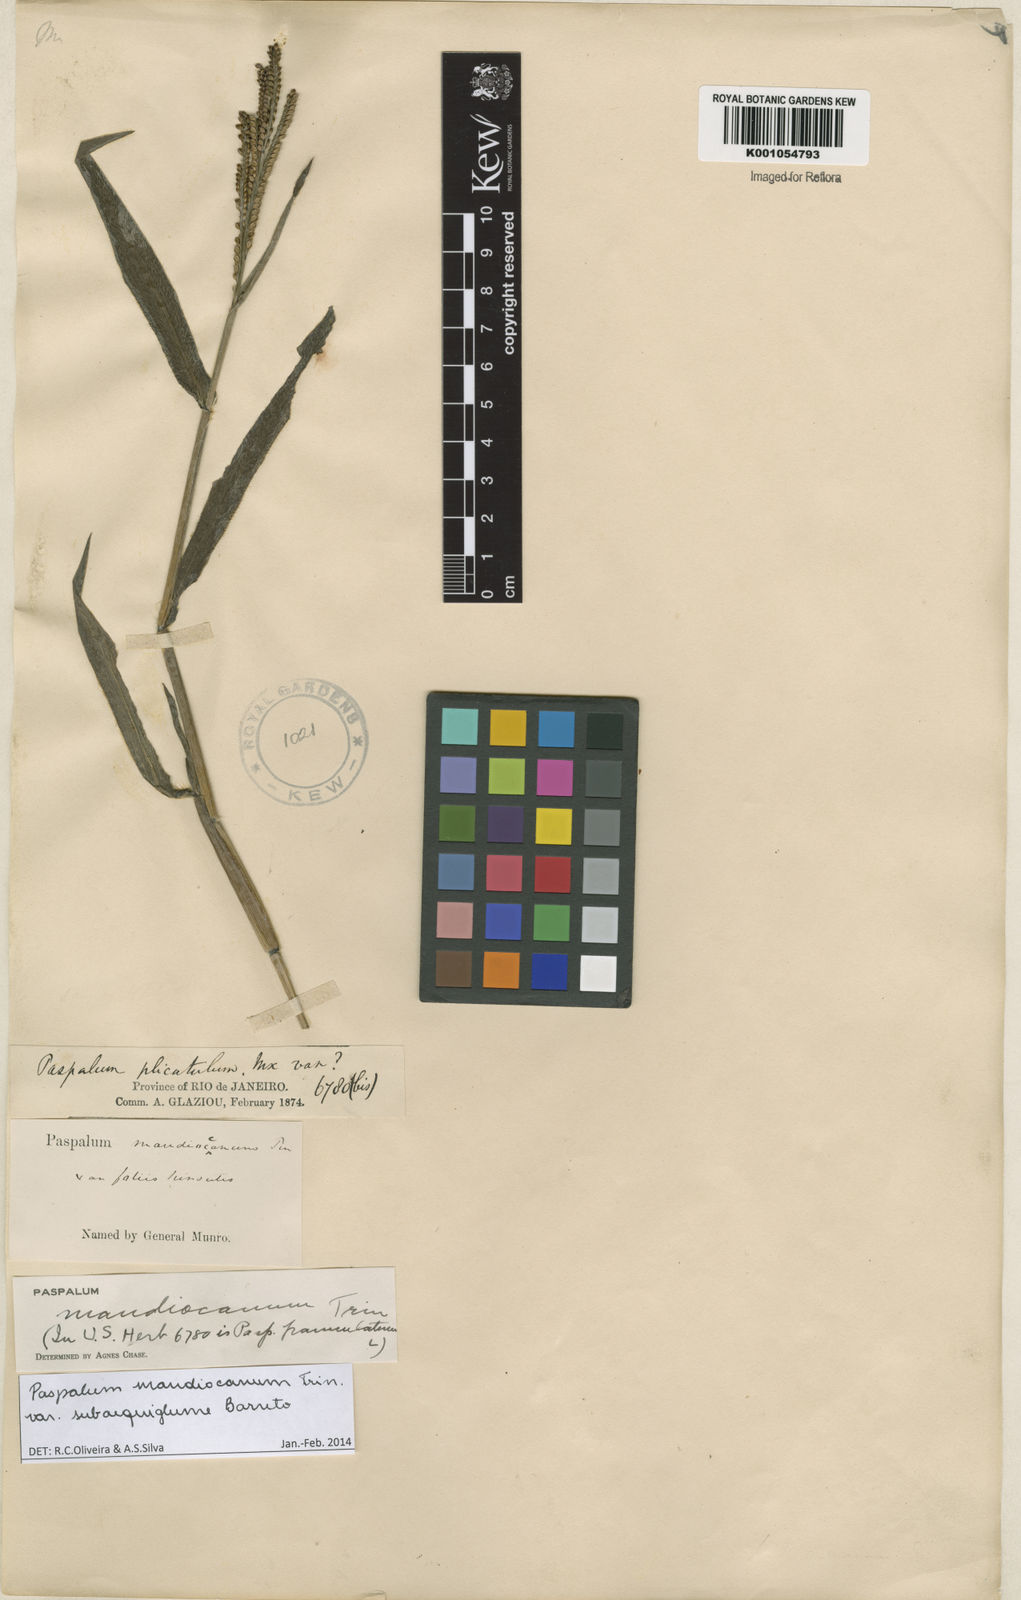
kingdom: Plantae
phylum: Tracheophyta
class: Liliopsida
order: Poales
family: Poaceae
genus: Paspalum
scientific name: Paspalum mandiocanum
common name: Paspalum
